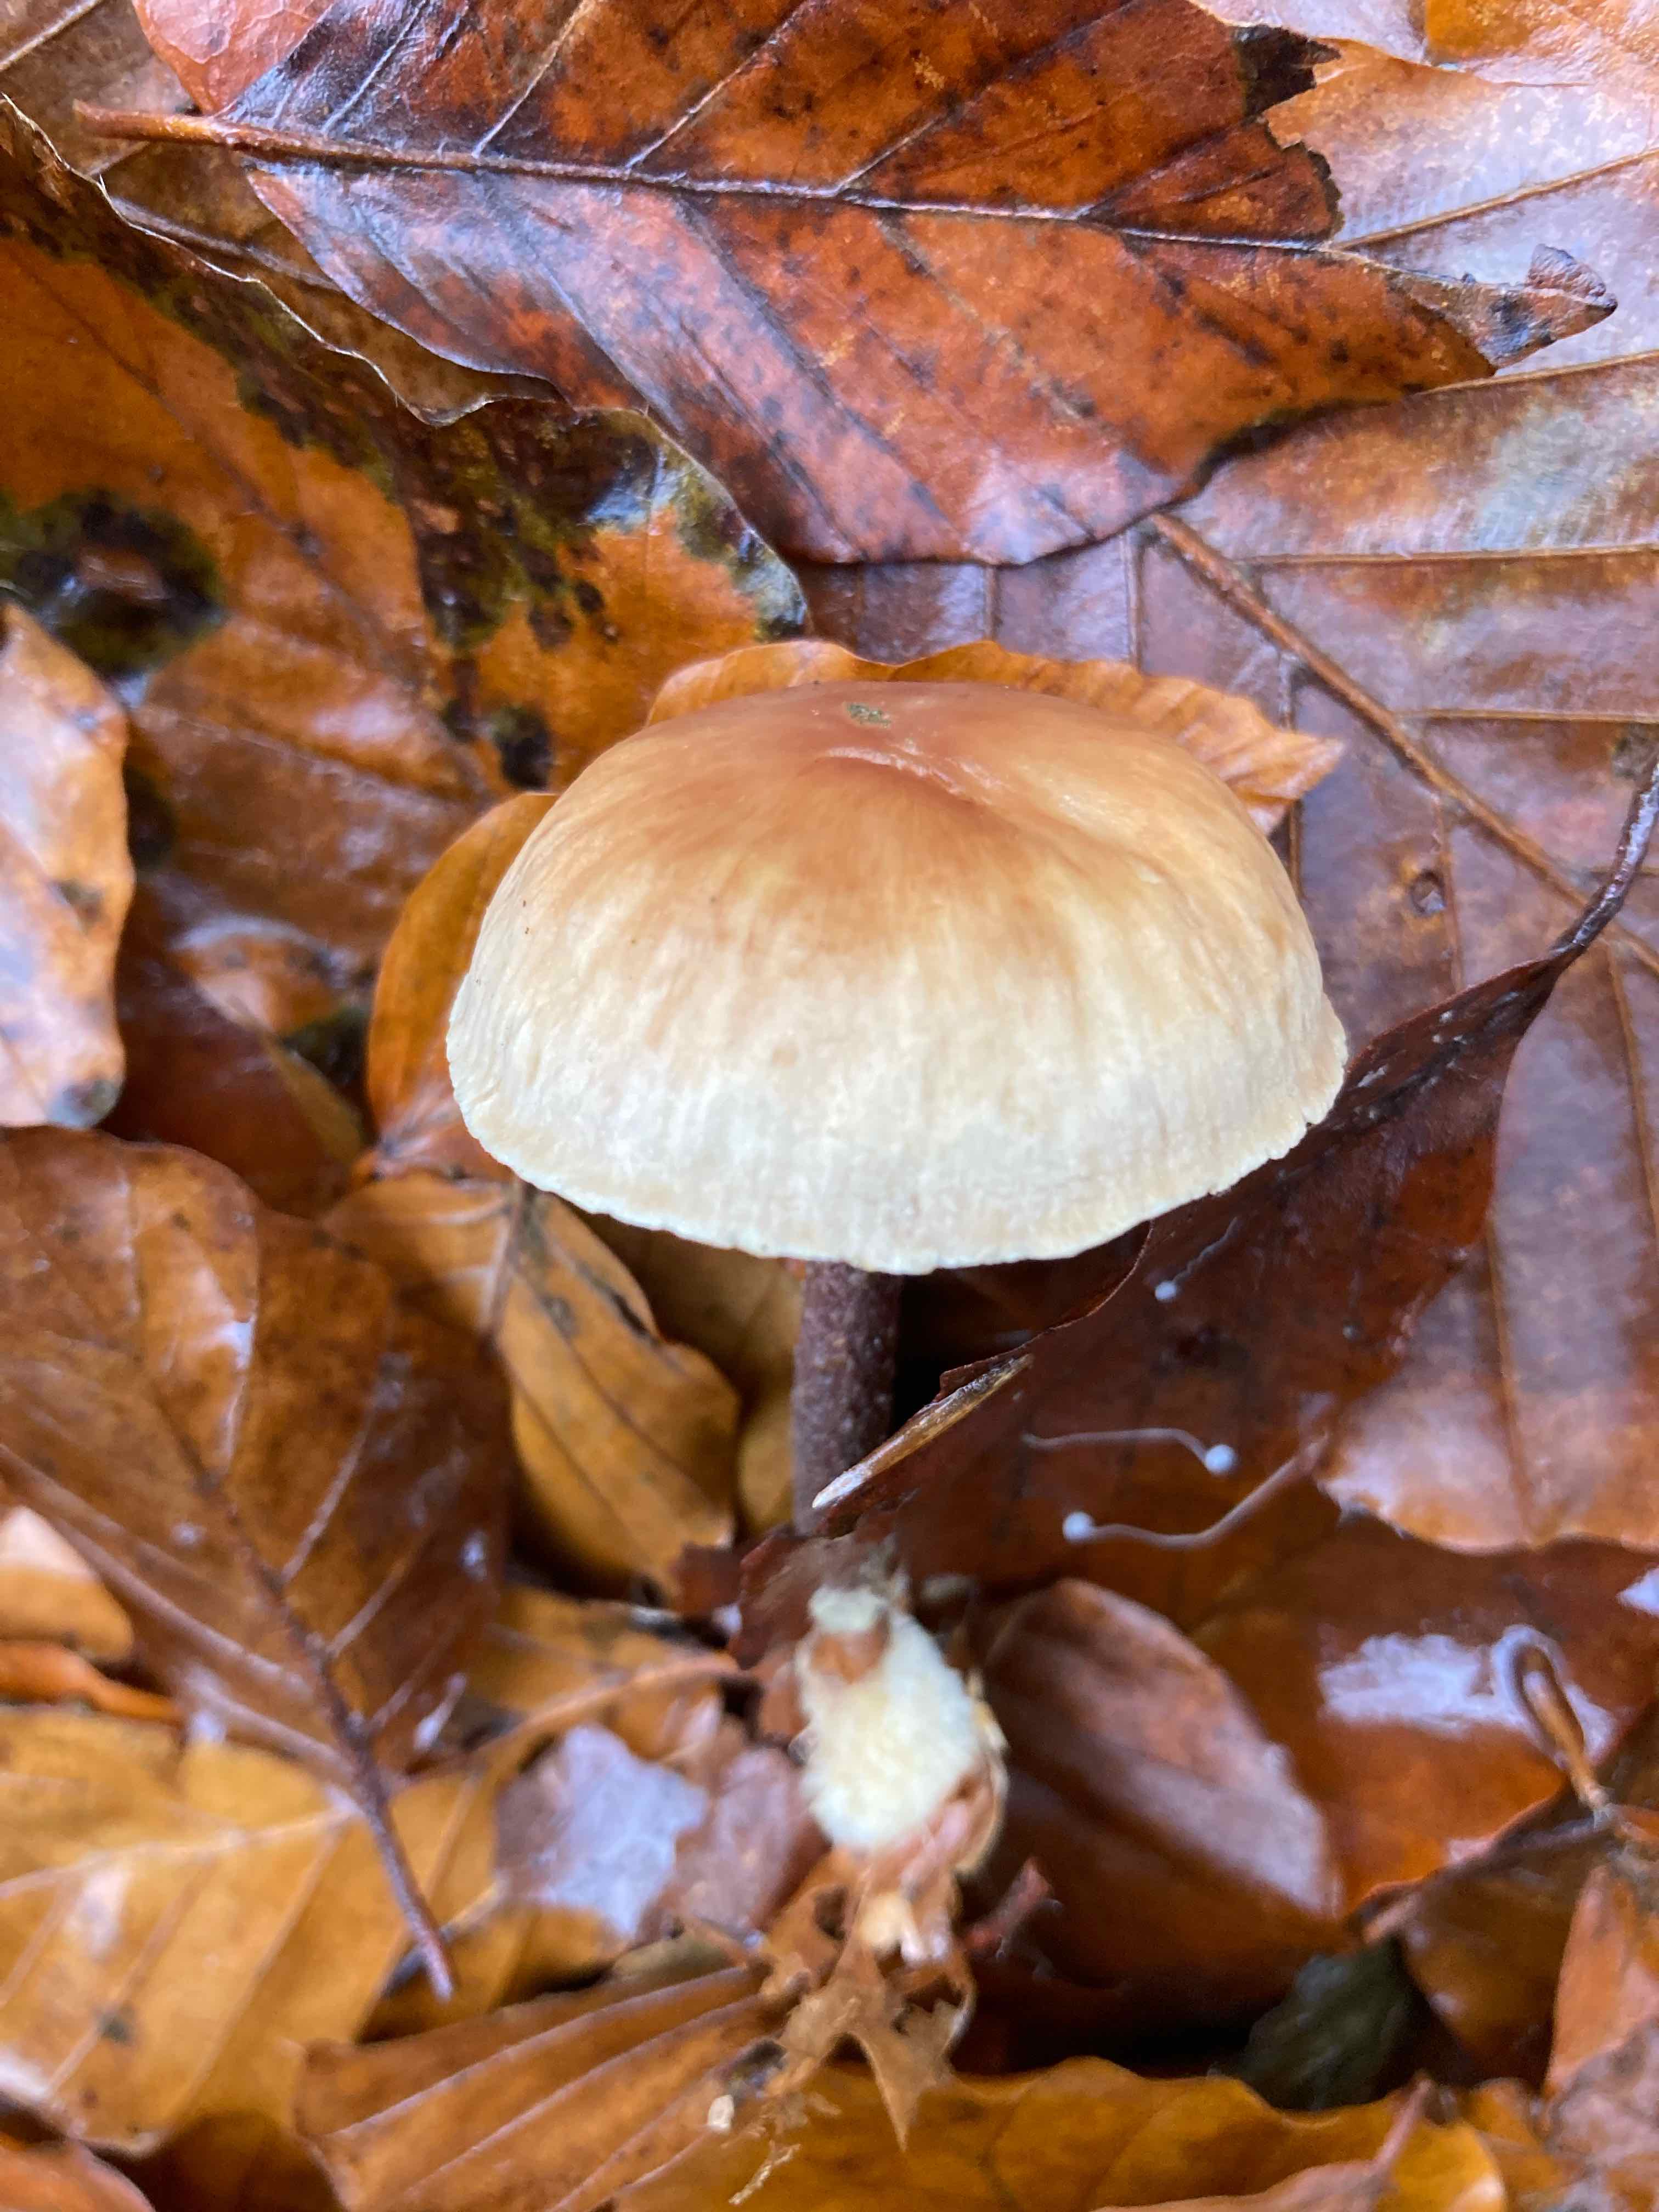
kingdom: Fungi
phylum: Basidiomycota
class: Agaricomycetes
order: Agaricales
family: Omphalotaceae
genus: Gymnopus
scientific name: Gymnopus
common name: fladhat
